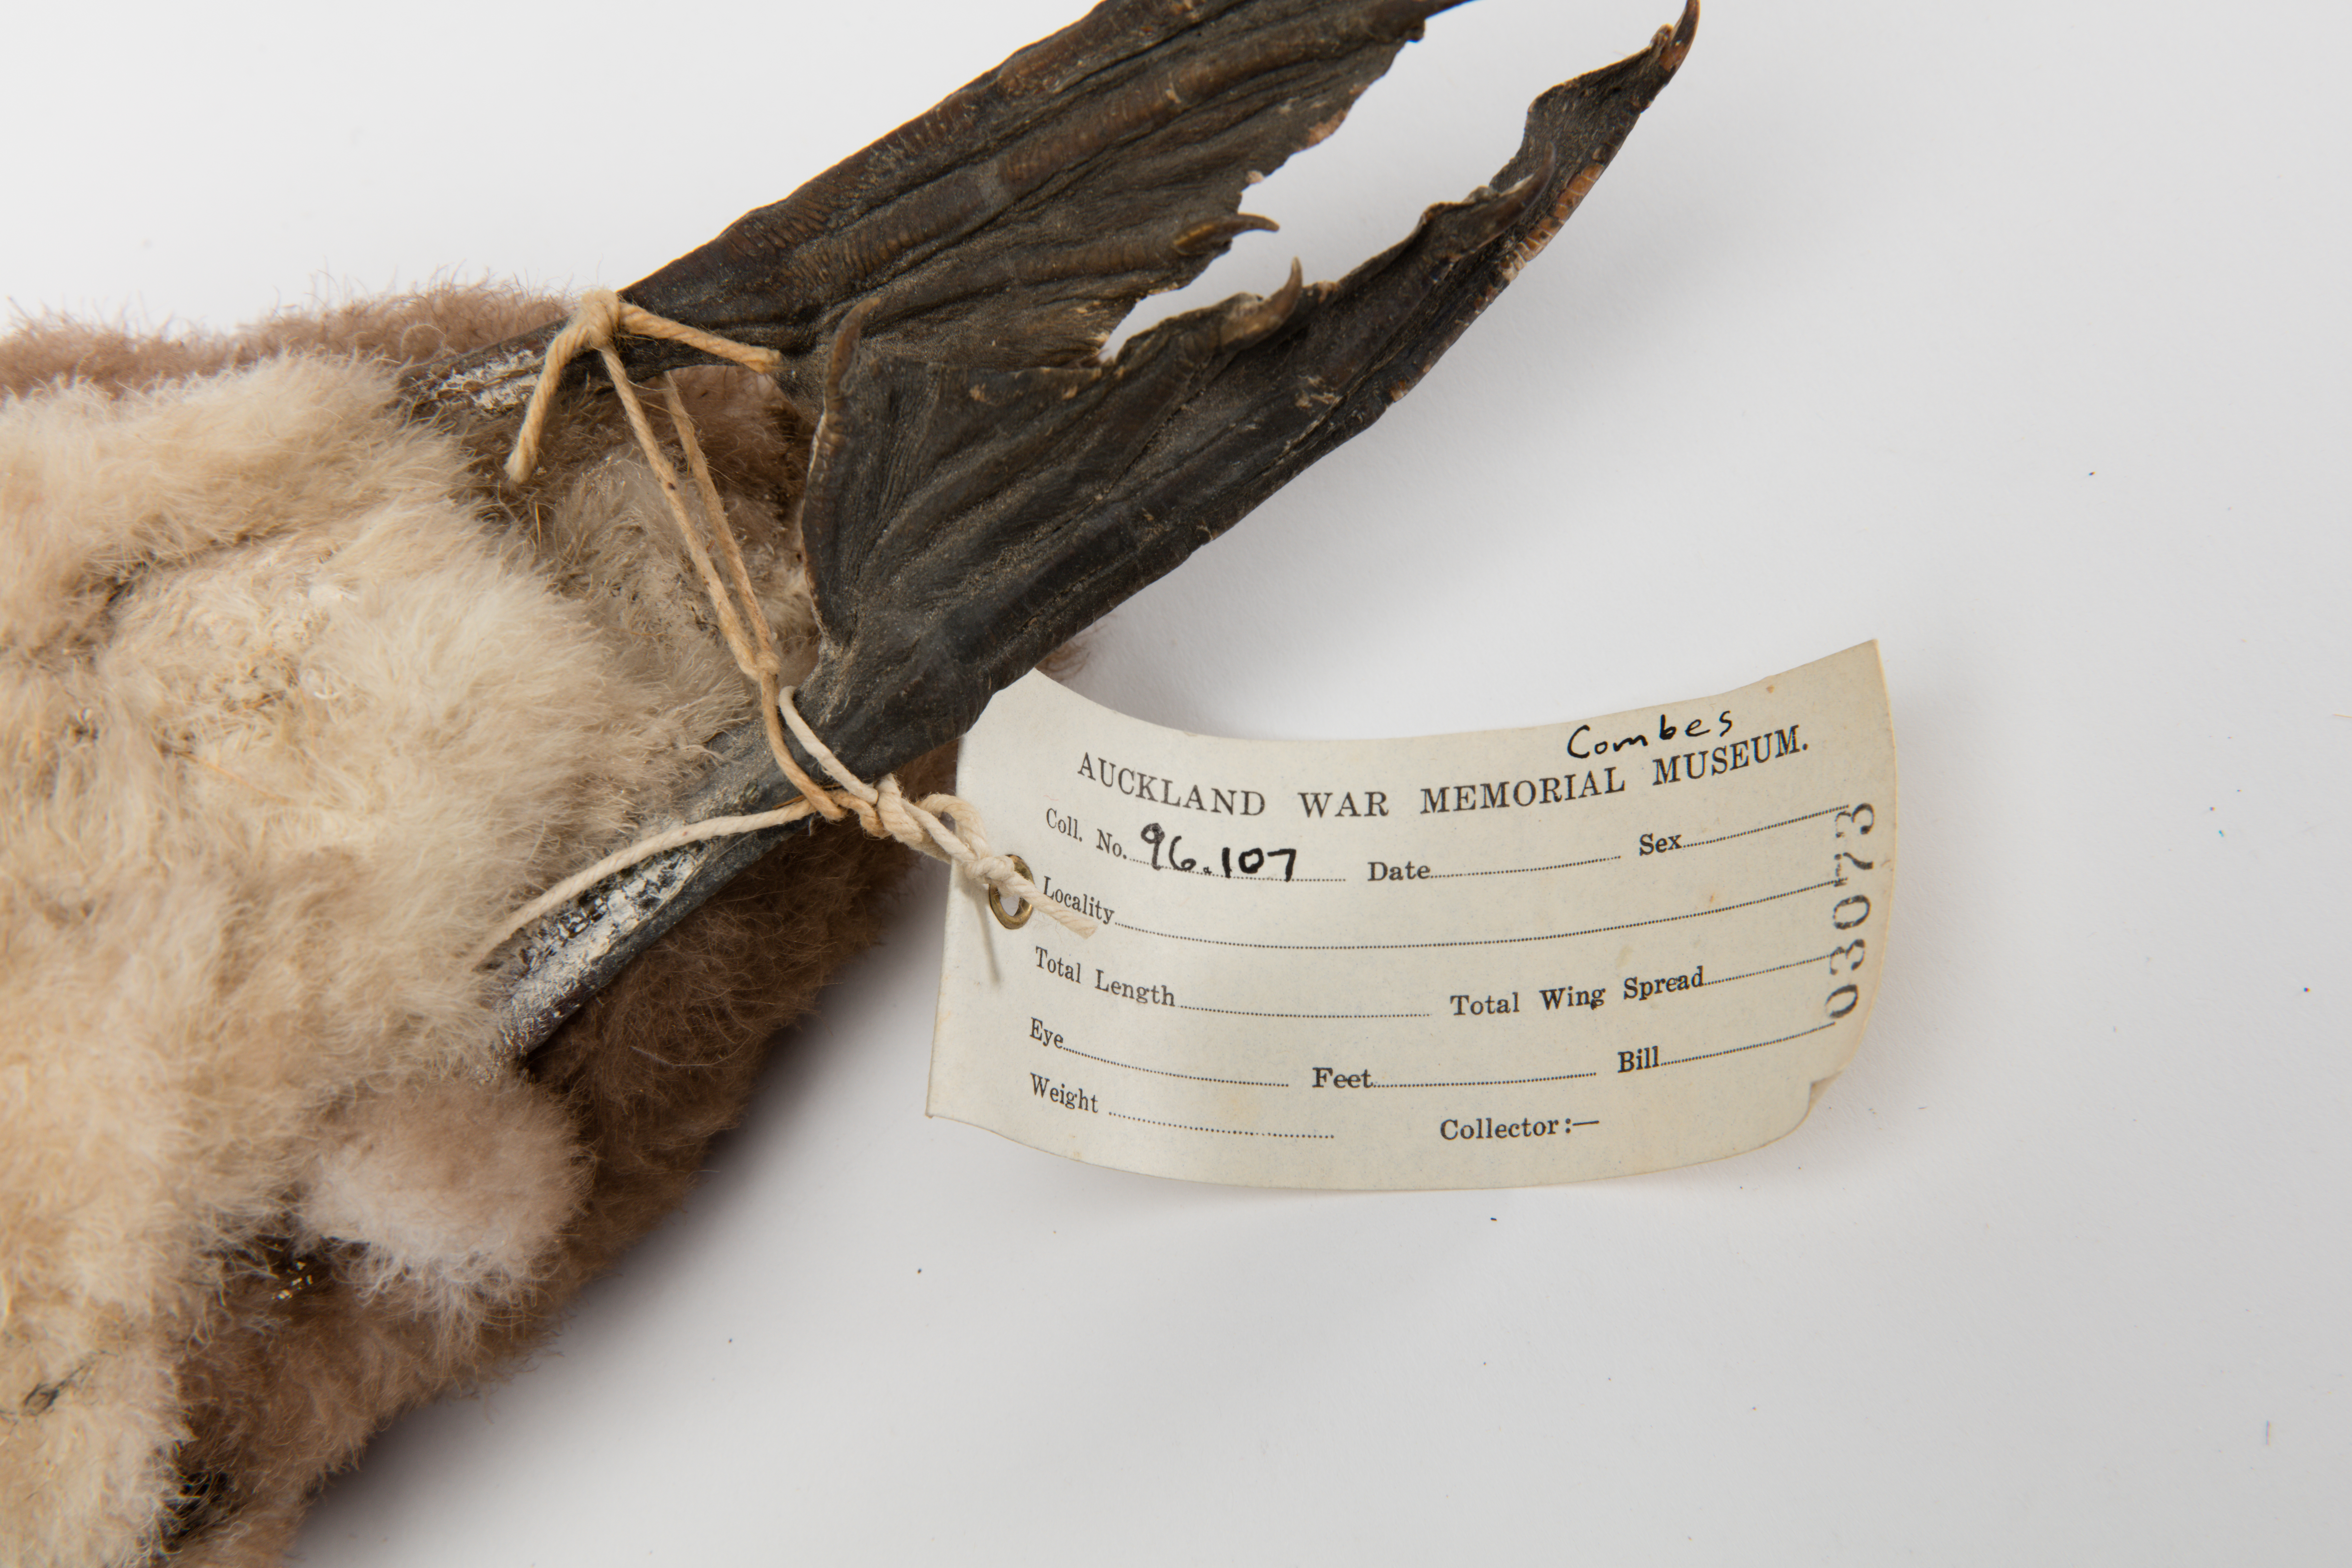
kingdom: Animalia
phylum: Chordata
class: Aves
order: Suliformes
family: Phalacrocoracidae
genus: Phalacrocorax
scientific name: Phalacrocorax punctatus
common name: Spotted shag
